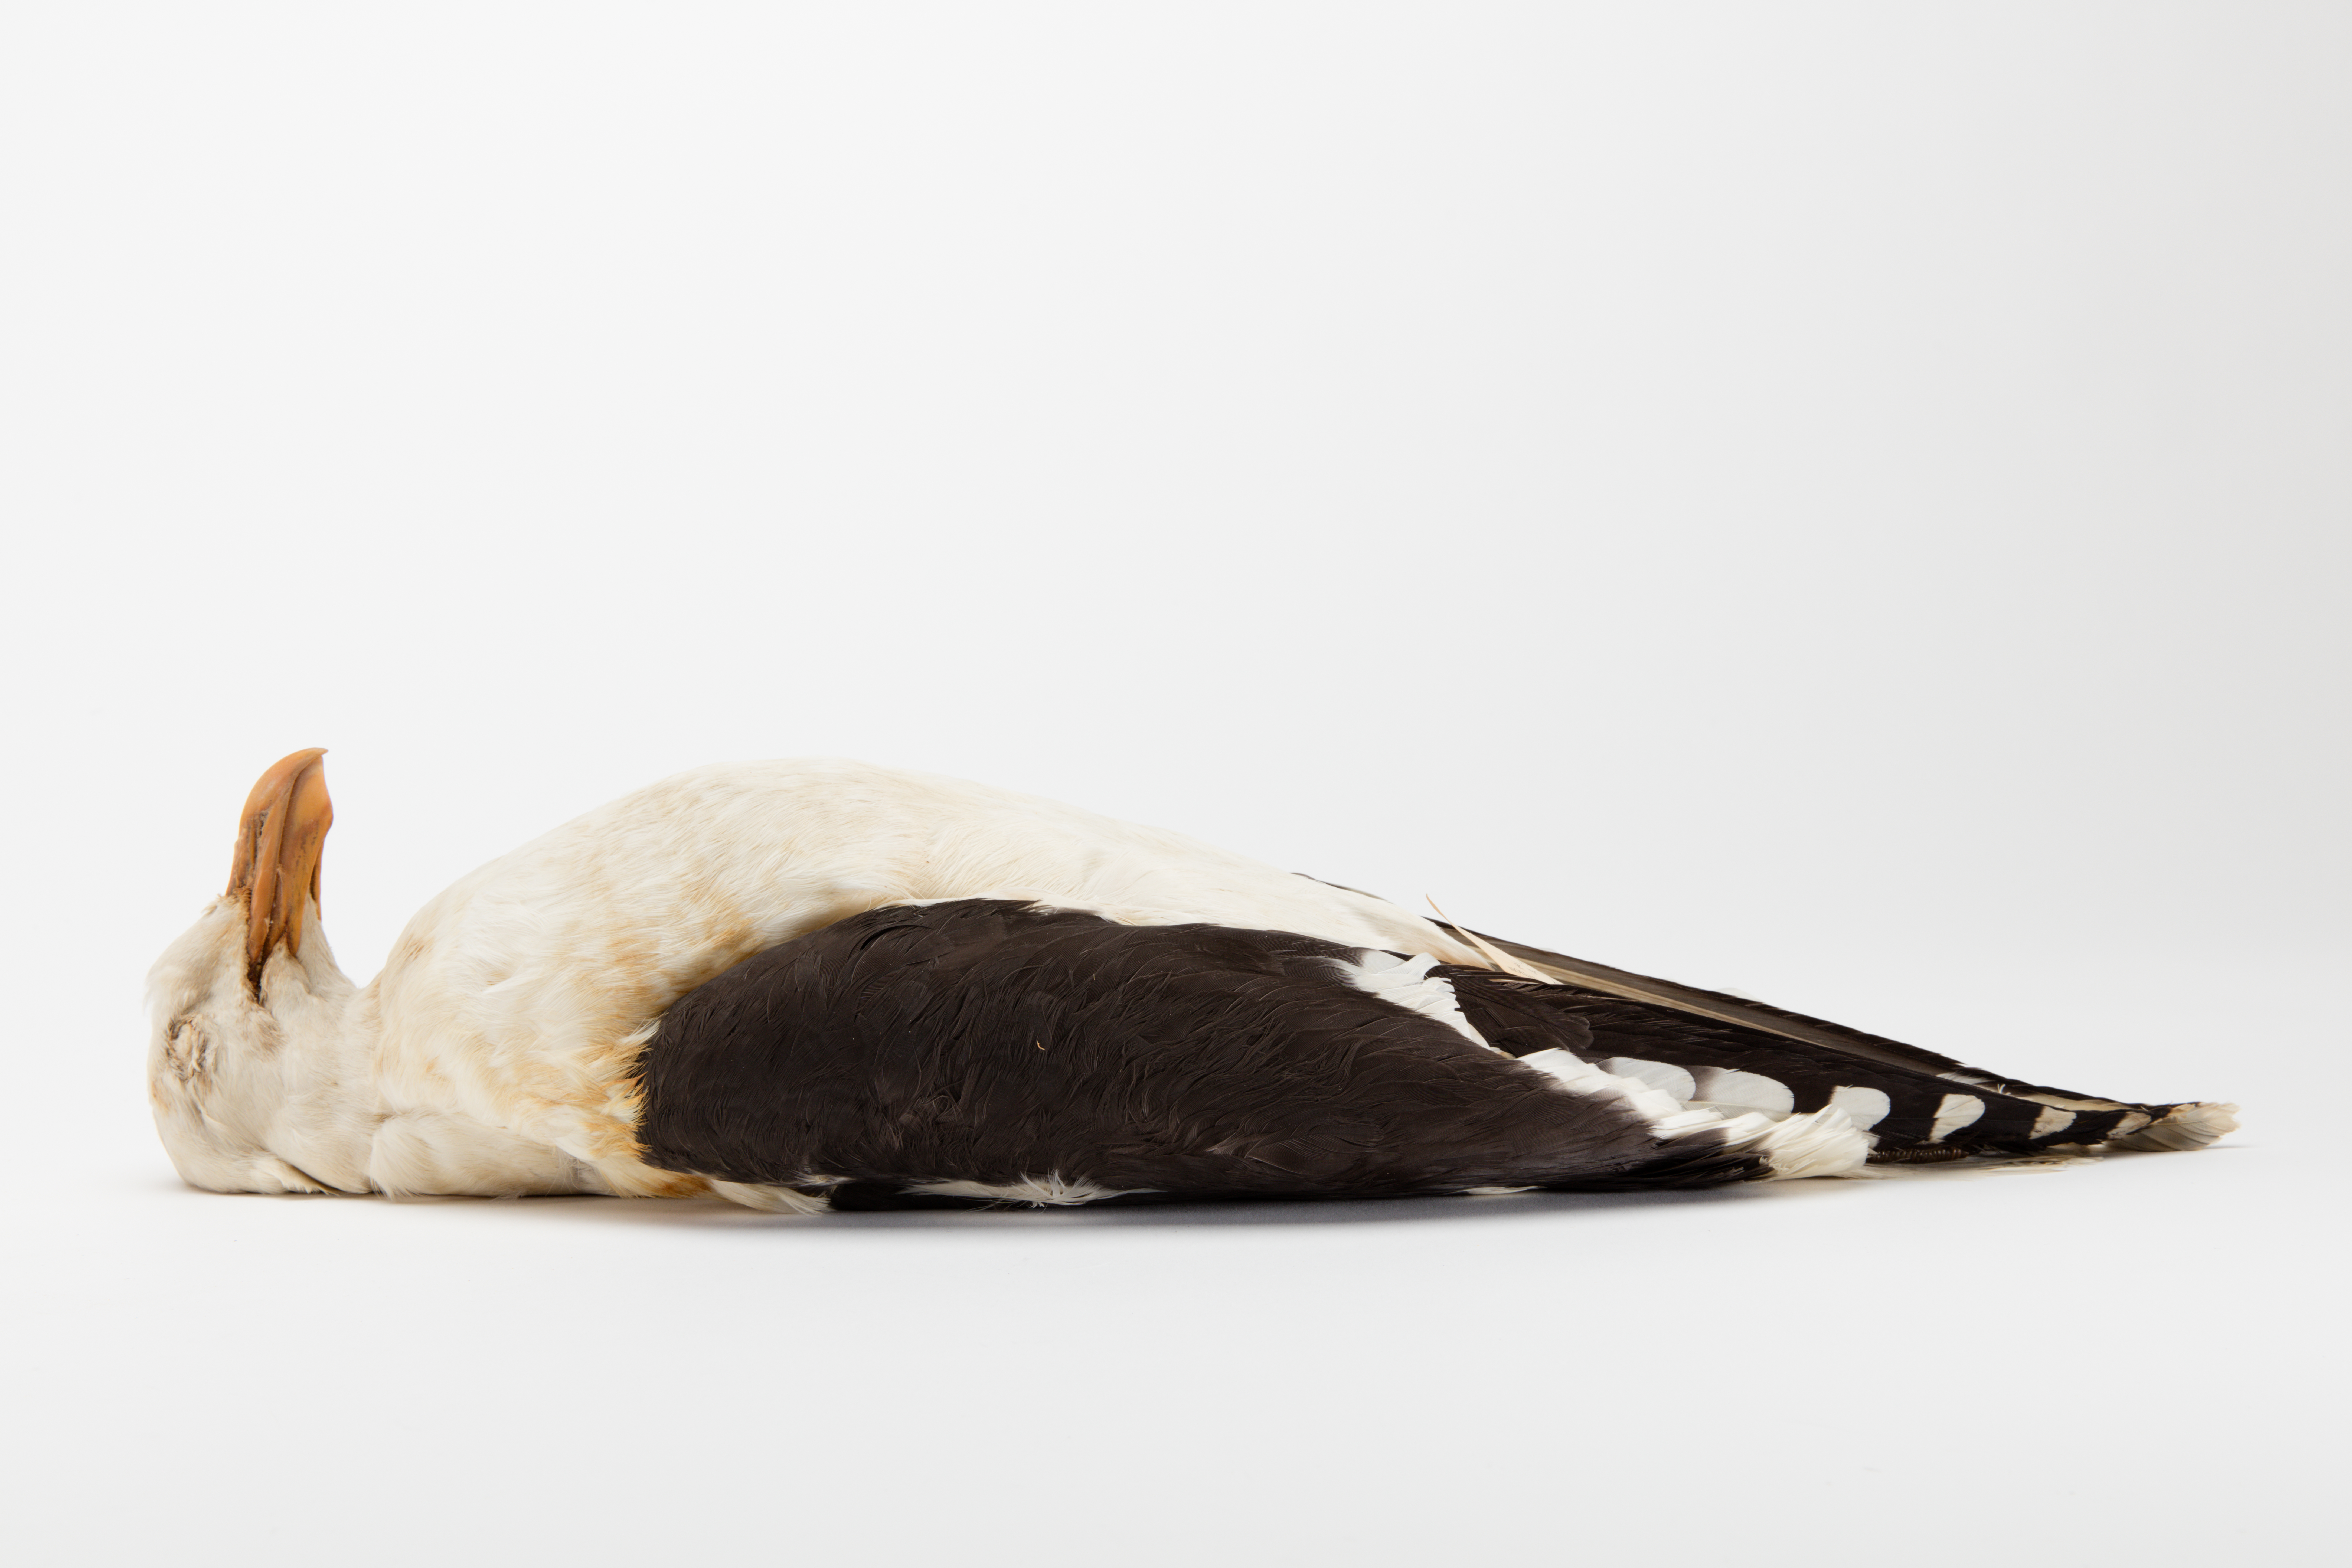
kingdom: Animalia
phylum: Chordata
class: Aves
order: Charadriiformes
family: Laridae
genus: Larus
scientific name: Larus dominicanus
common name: Kelp gull
